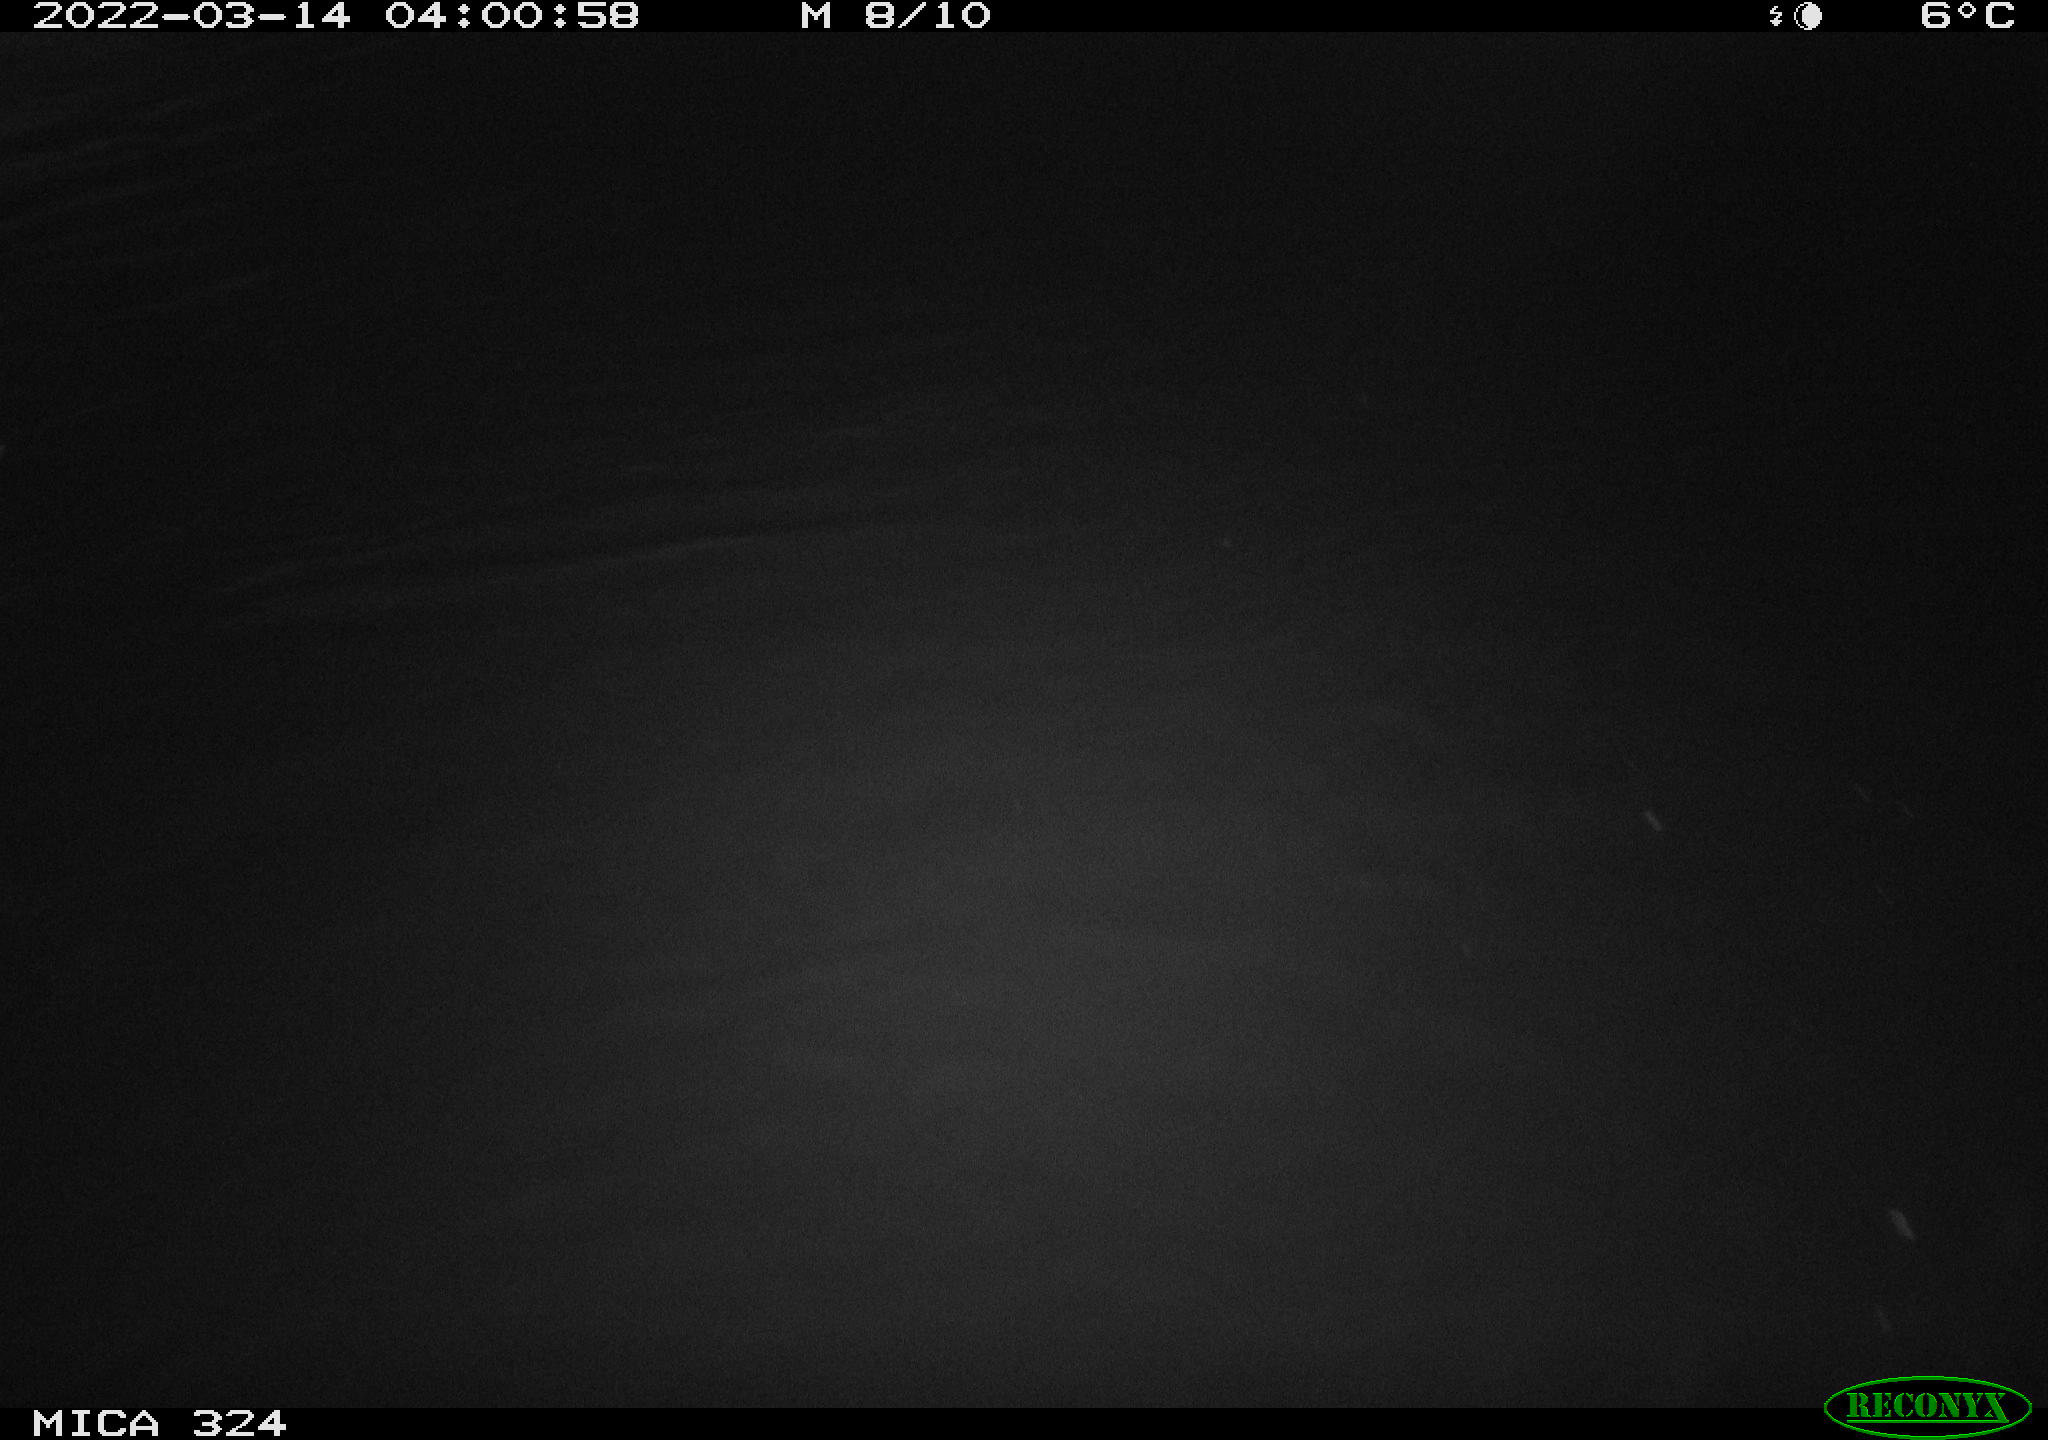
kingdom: Animalia
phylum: Chordata
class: Mammalia
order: Rodentia
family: Cricetidae
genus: Ondatra
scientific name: Ondatra zibethicus
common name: Muskrat
